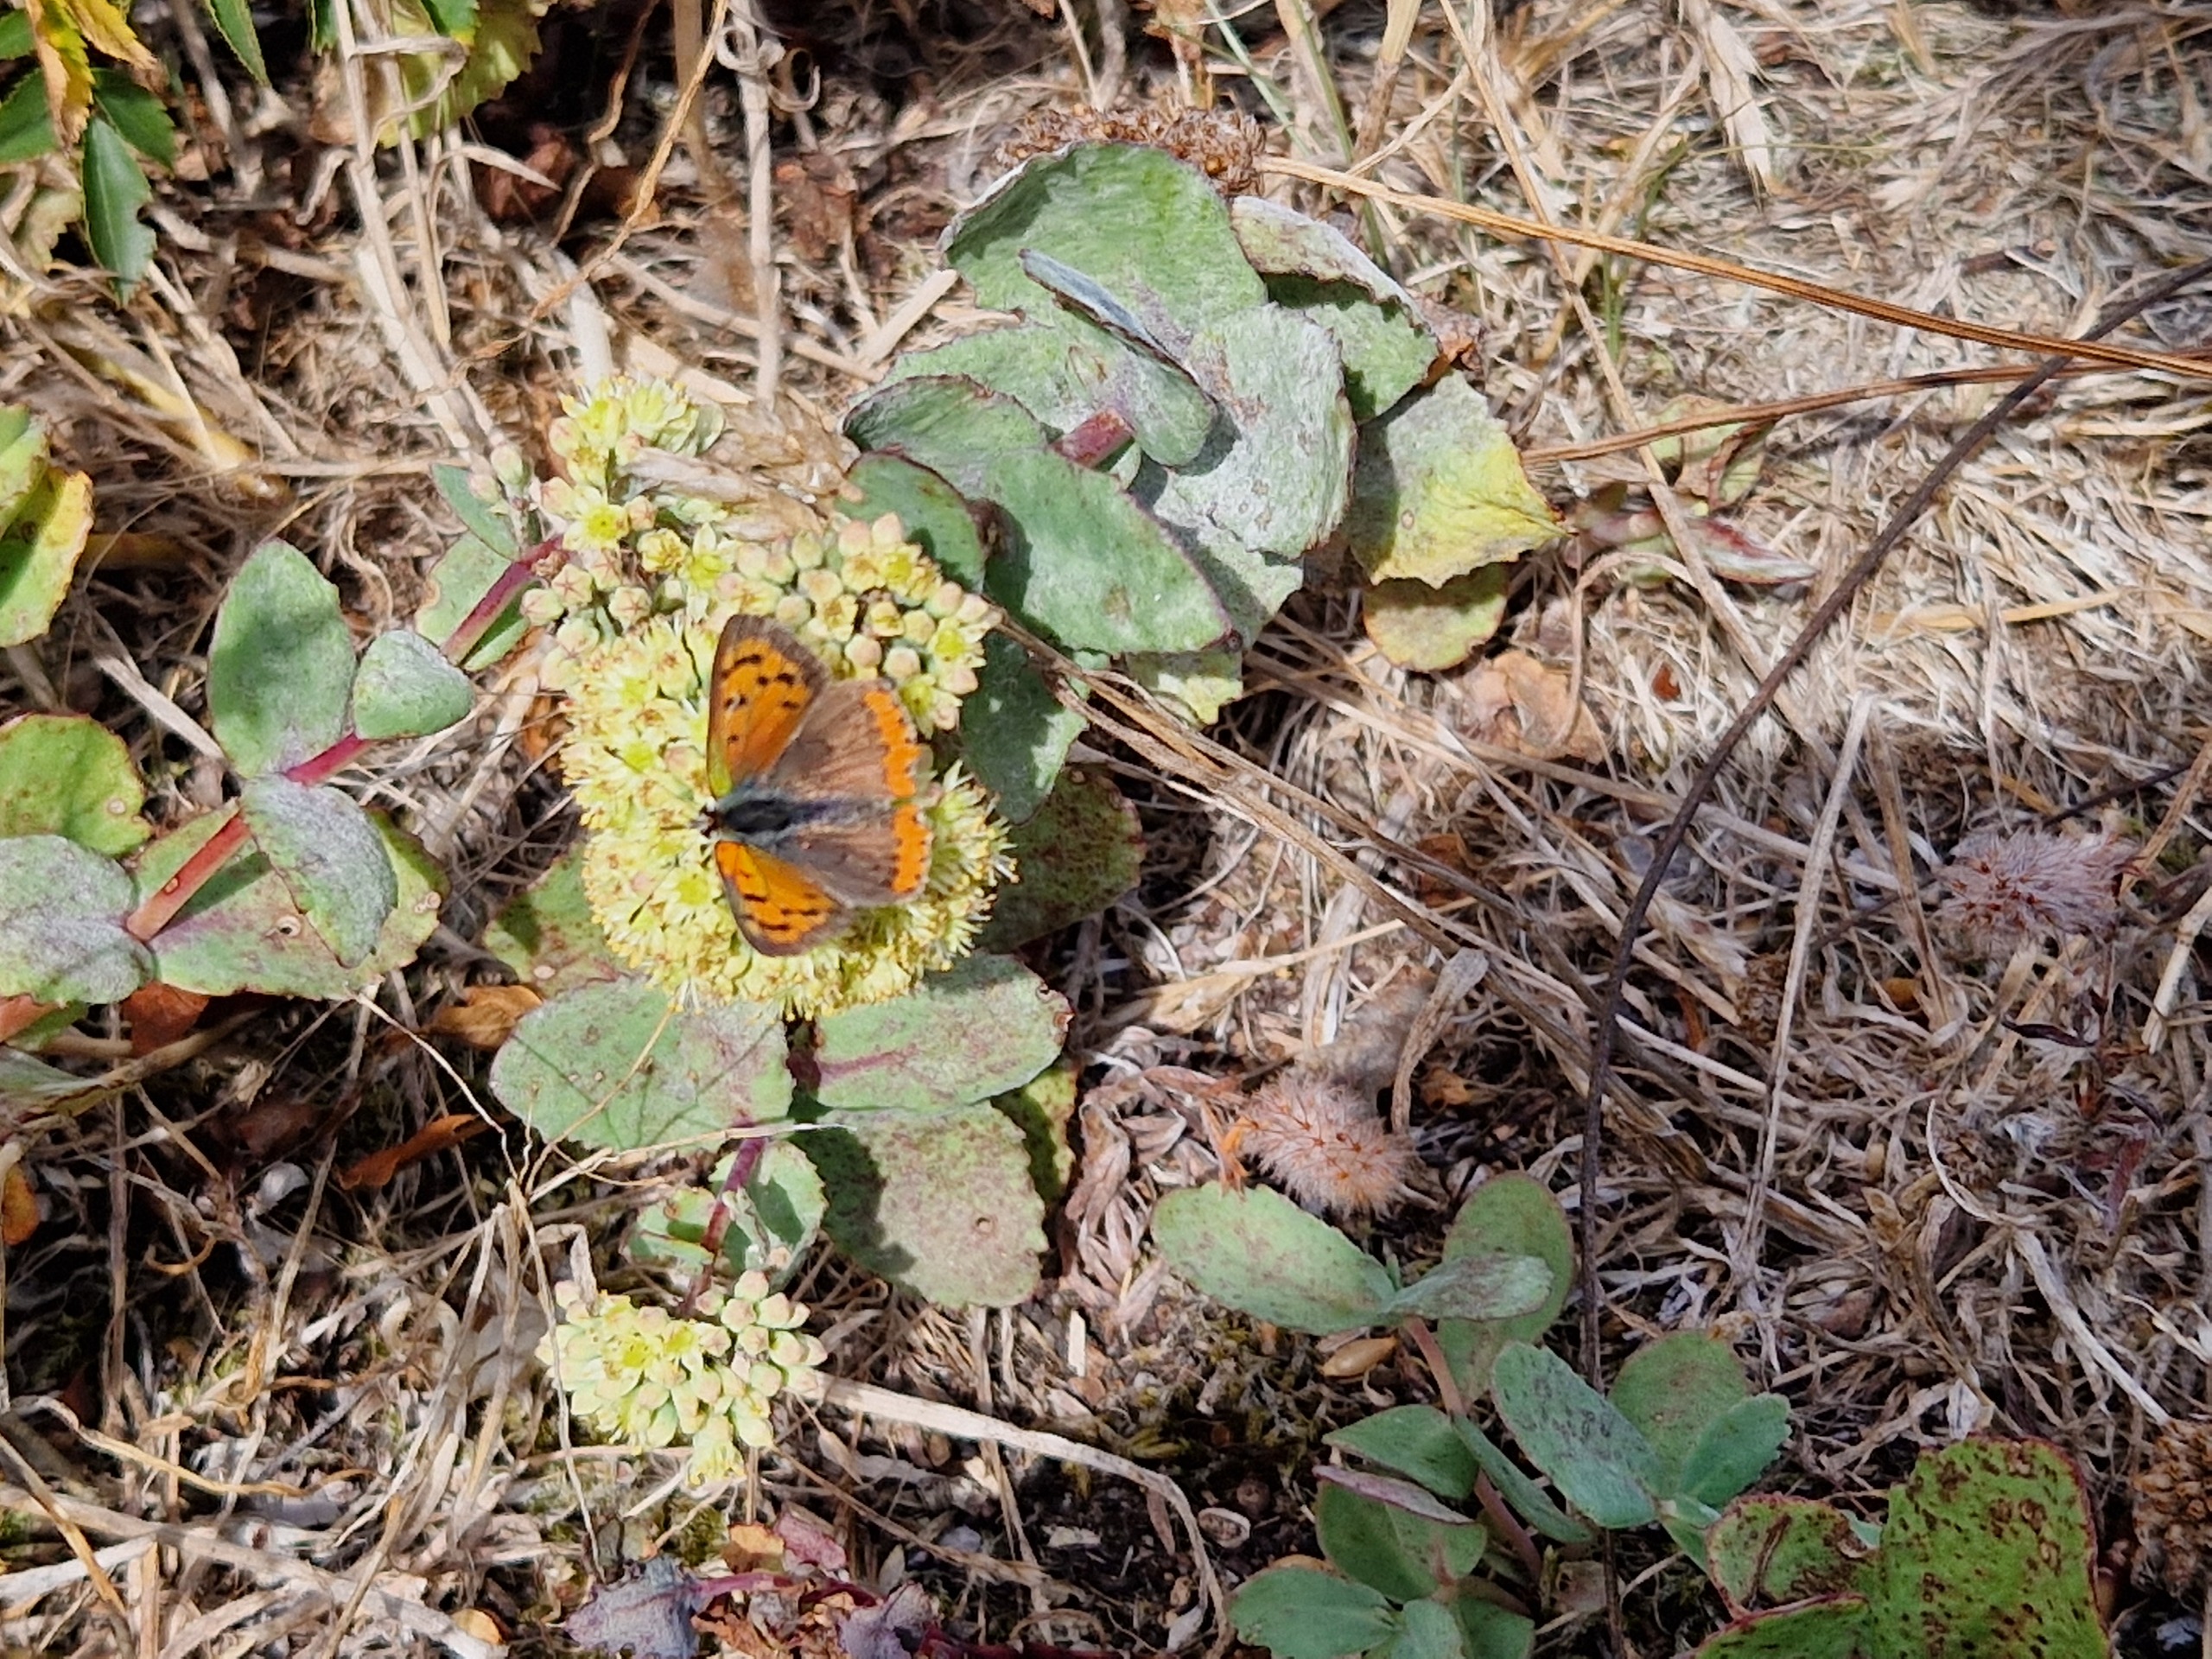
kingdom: Animalia
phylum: Arthropoda
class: Insecta
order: Lepidoptera
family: Lycaenidae
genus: Lycaena
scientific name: Lycaena phlaeas
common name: Lille ildfugl
